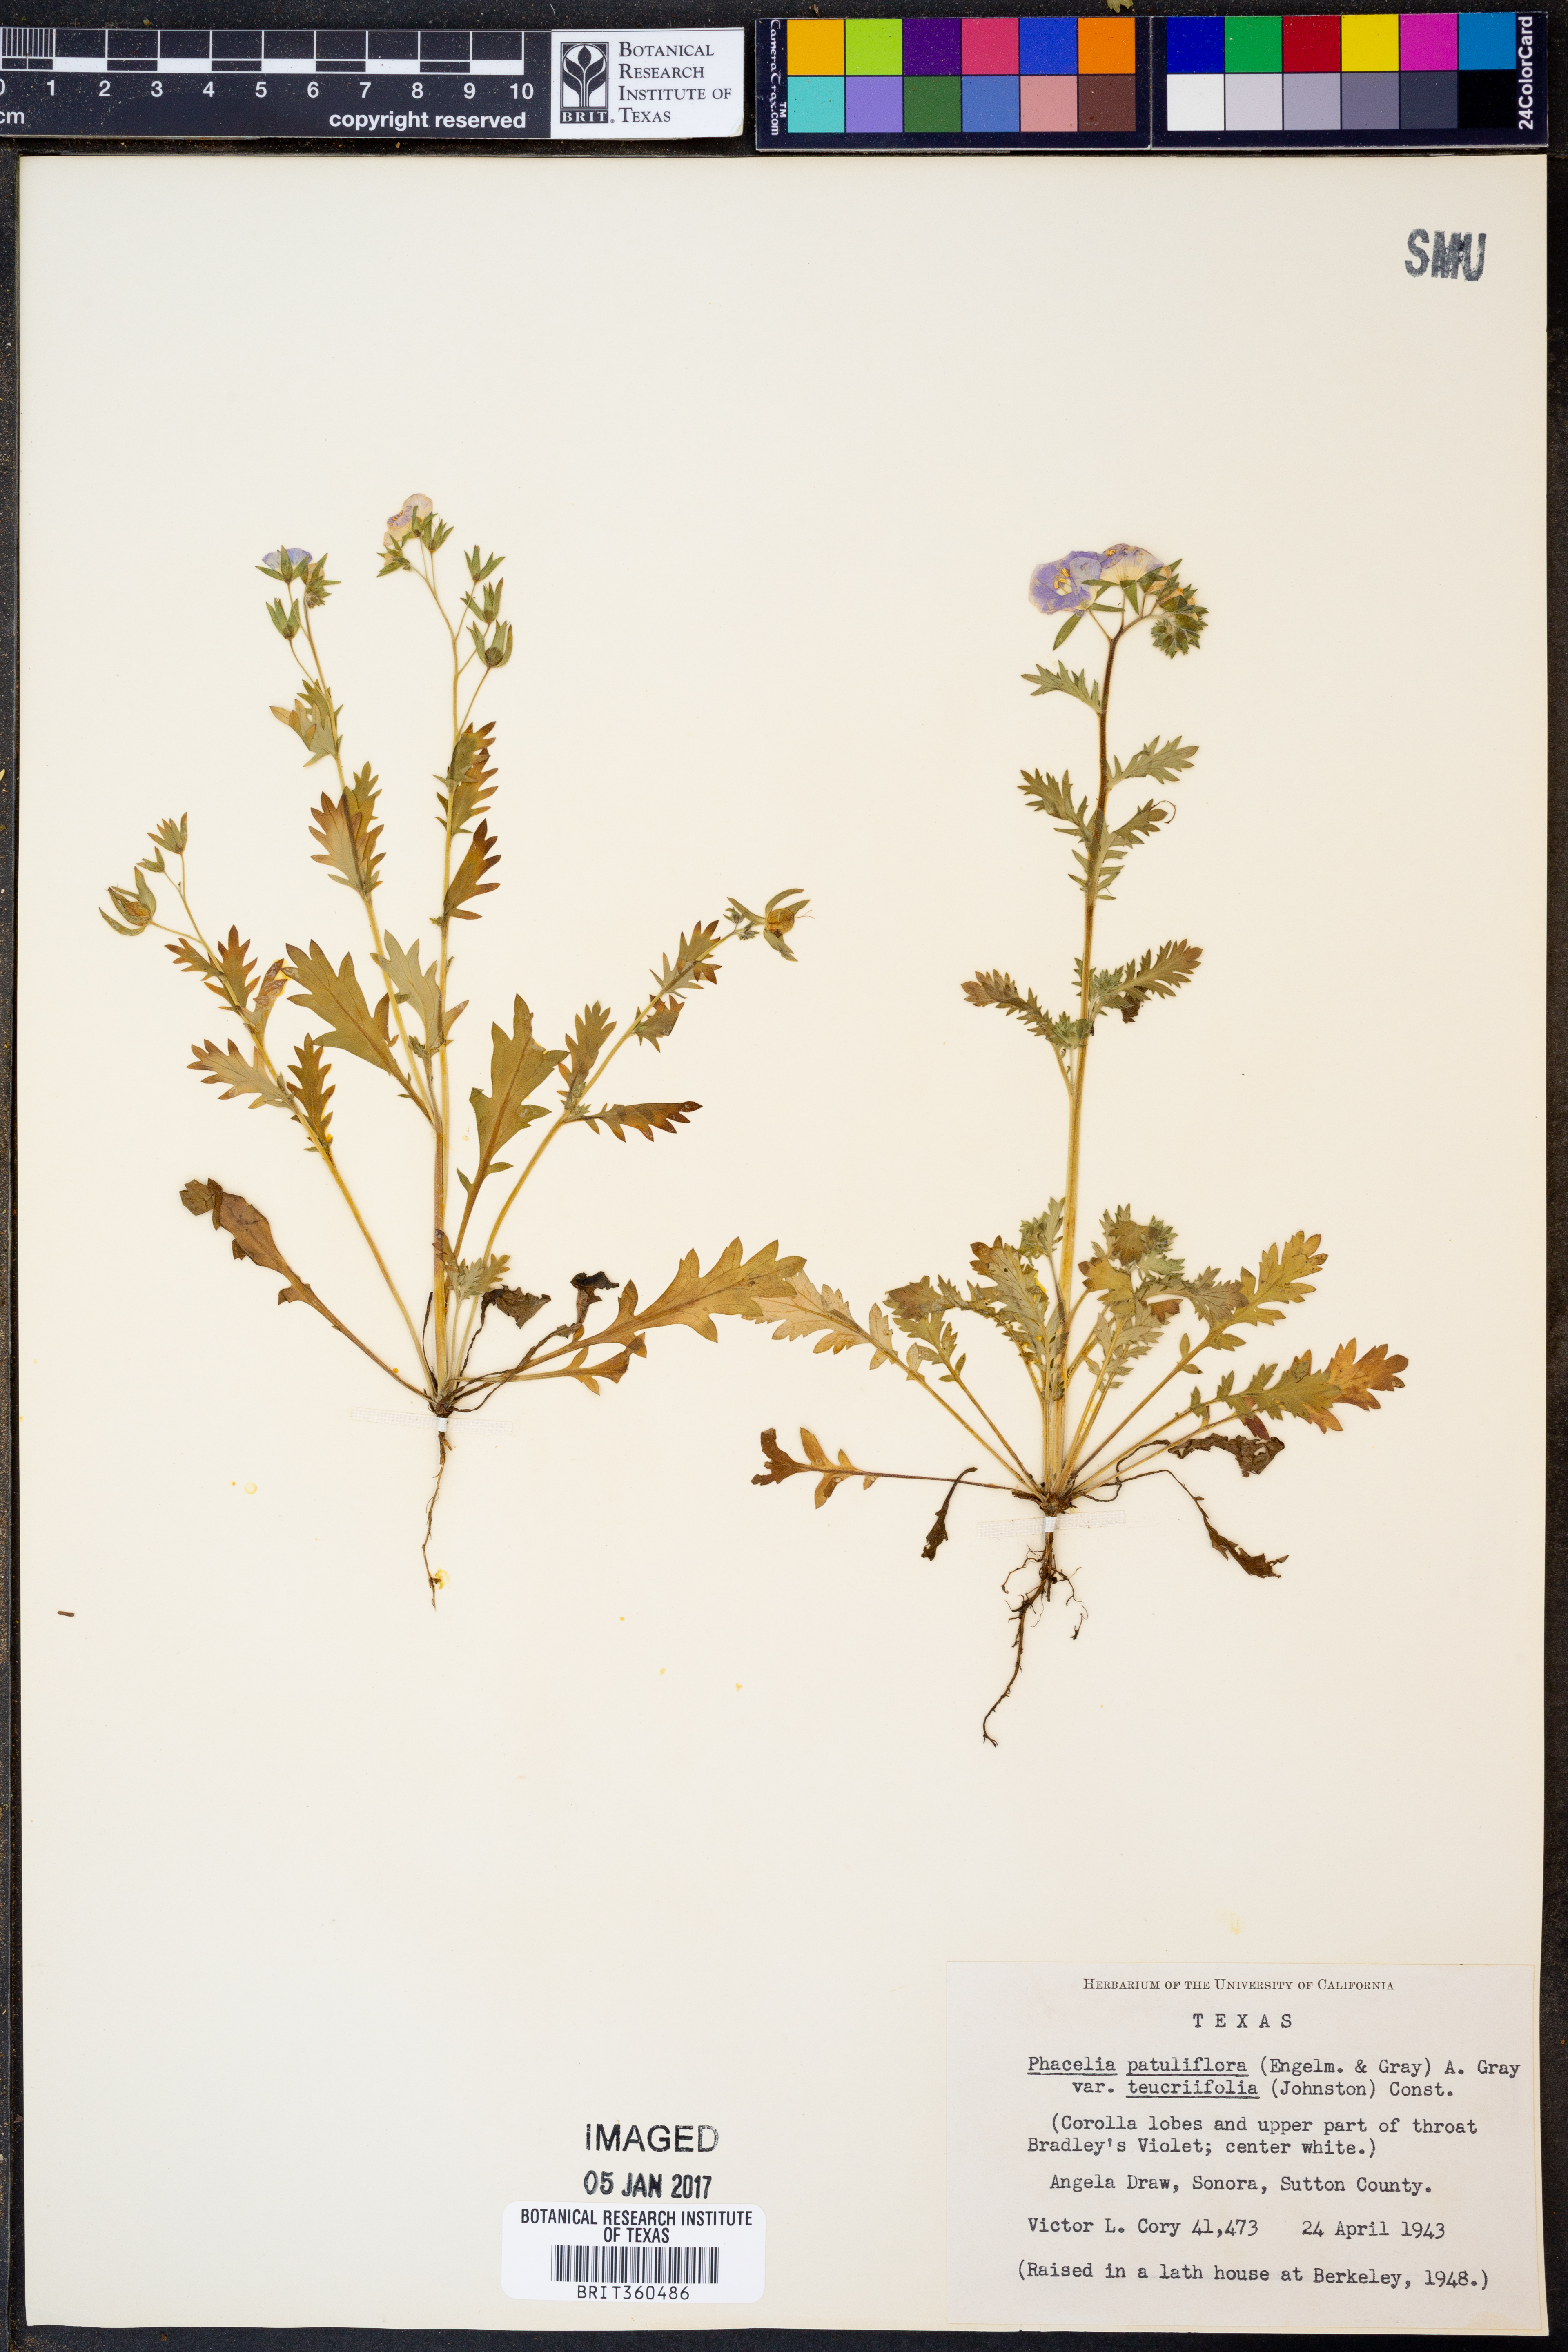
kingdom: Plantae
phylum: Tracheophyta
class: Magnoliopsida
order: Boraginales
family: Hydrophyllaceae
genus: Phacelia
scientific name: Phacelia patuliflora
